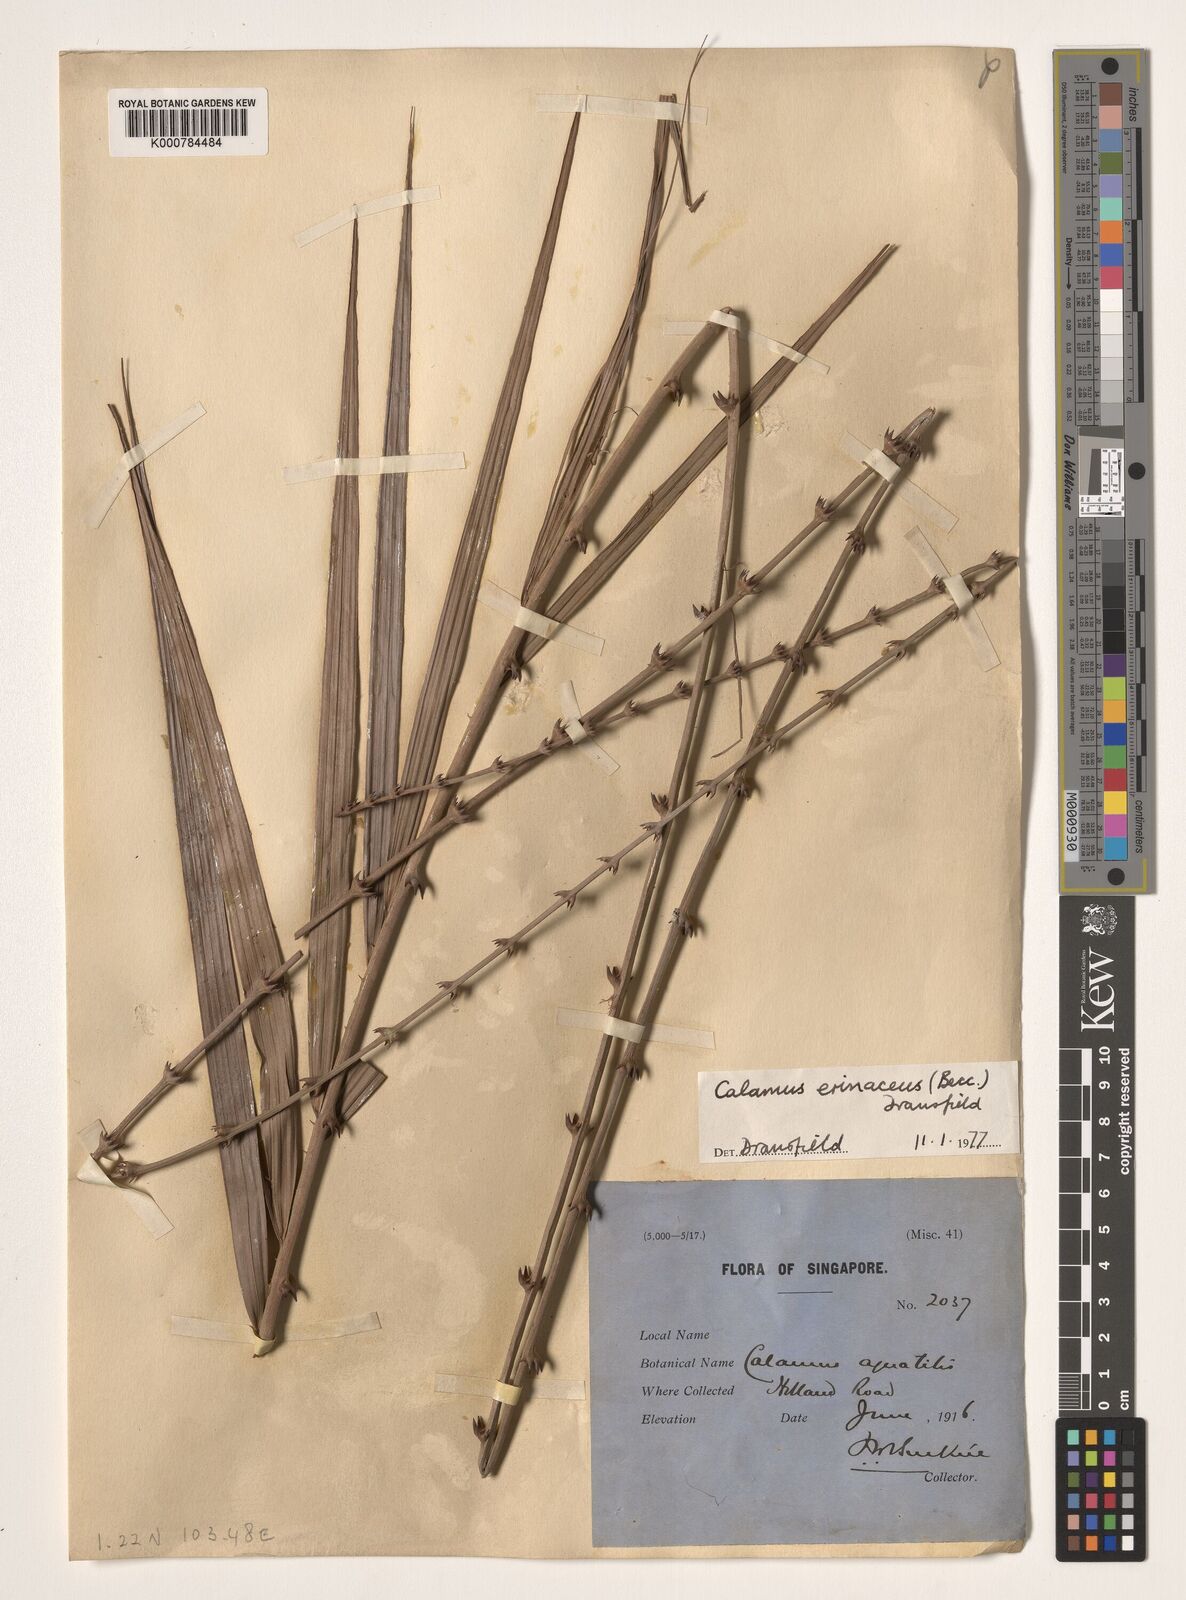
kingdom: Plantae
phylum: Tracheophyta
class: Liliopsida
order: Arecales
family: Arecaceae
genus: Calamus
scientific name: Calamus erinaceus
